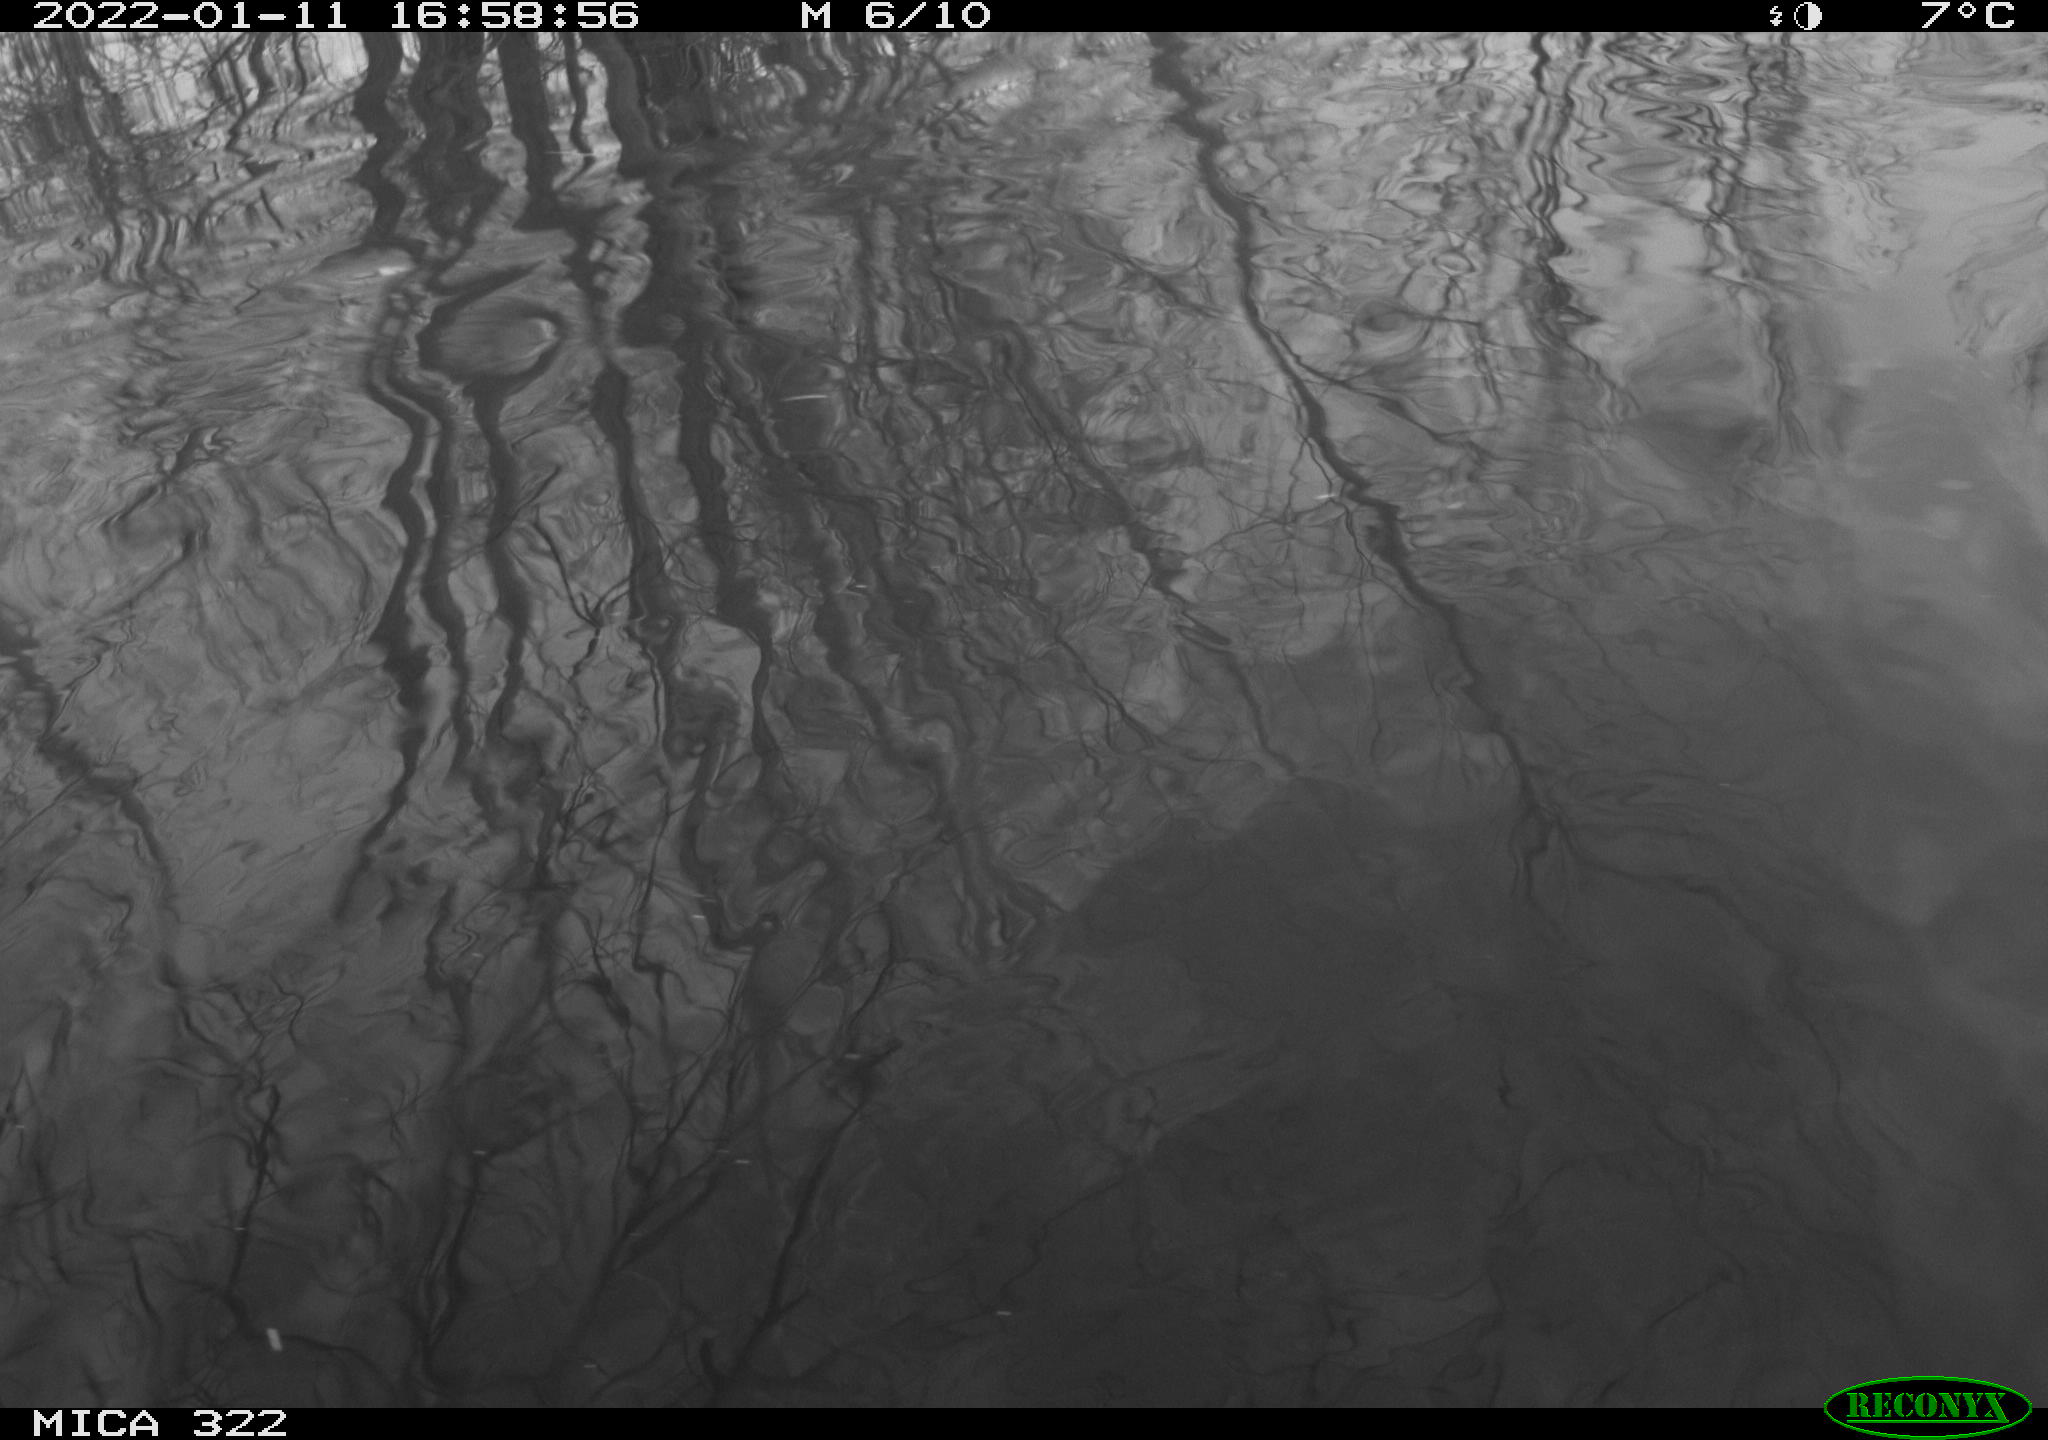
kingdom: Animalia
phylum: Chordata
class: Aves
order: Anseriformes
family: Anatidae
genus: Anas
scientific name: Anas
